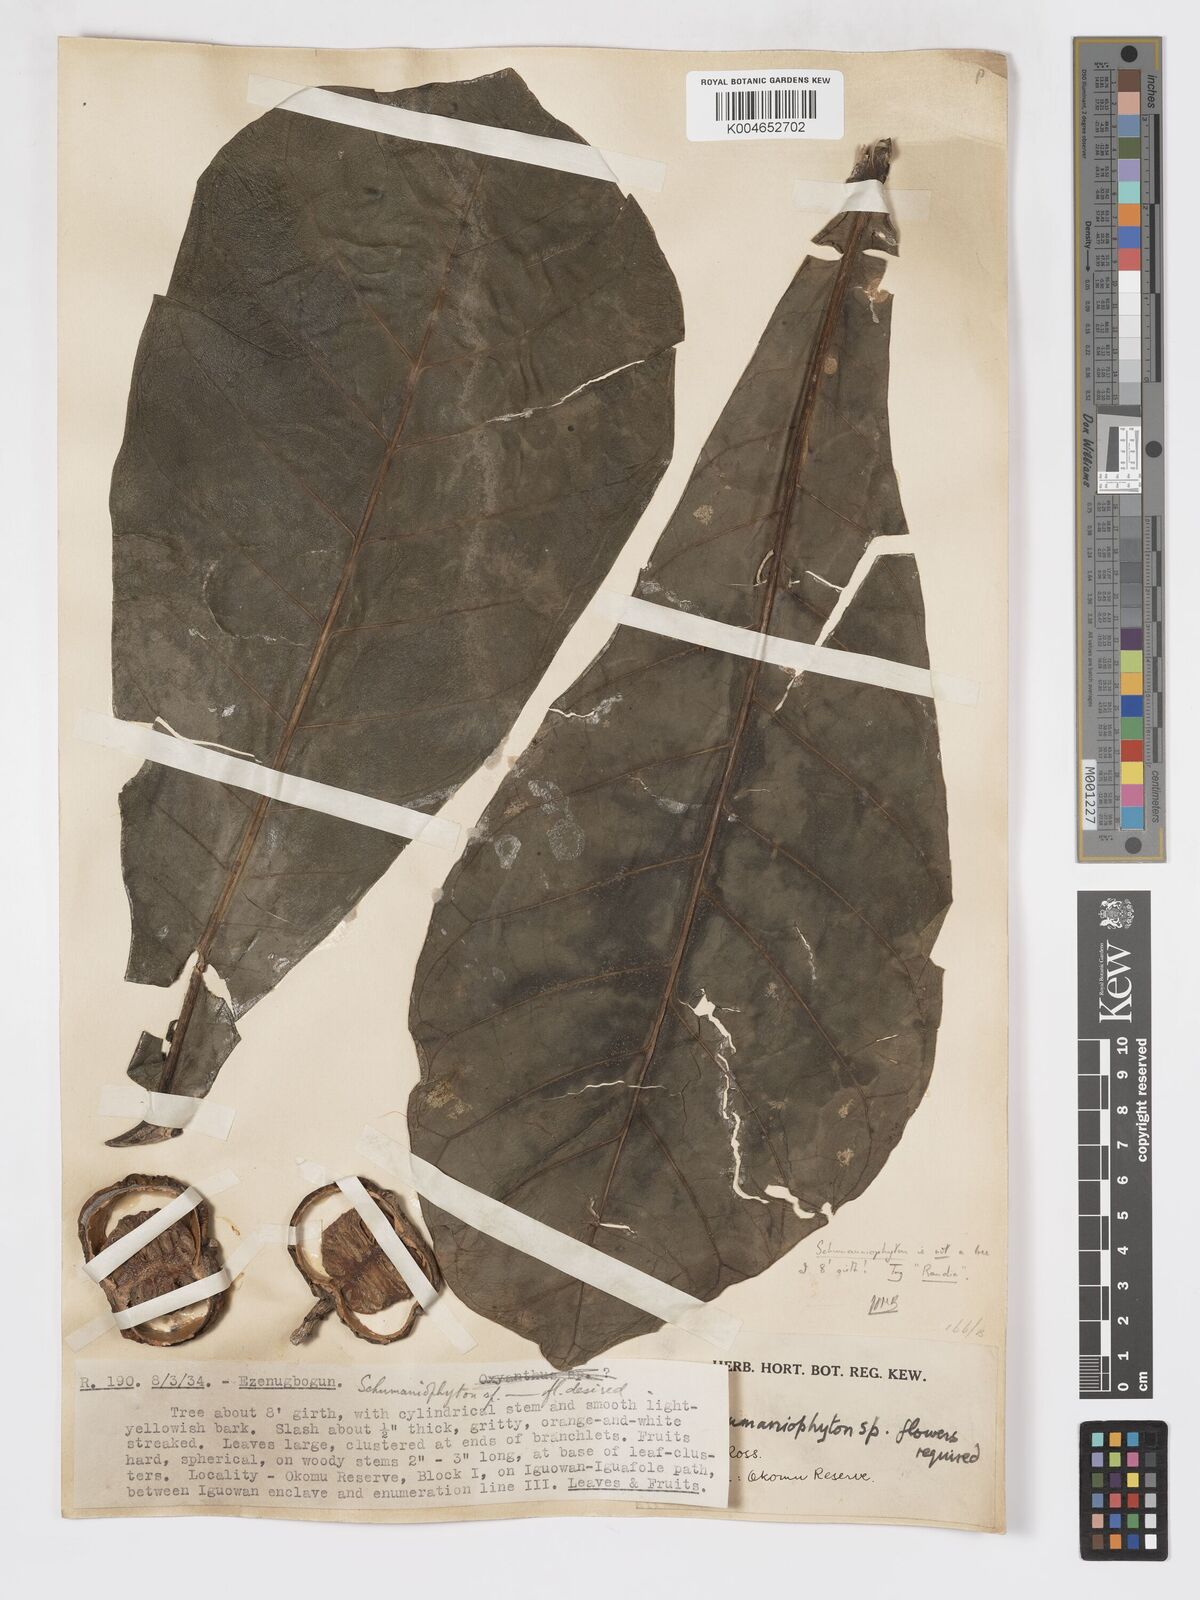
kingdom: Plantae
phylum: Tracheophyta
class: Magnoliopsida
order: Gentianales
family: Rubiaceae
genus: Brenania
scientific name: Brenania brieyi
